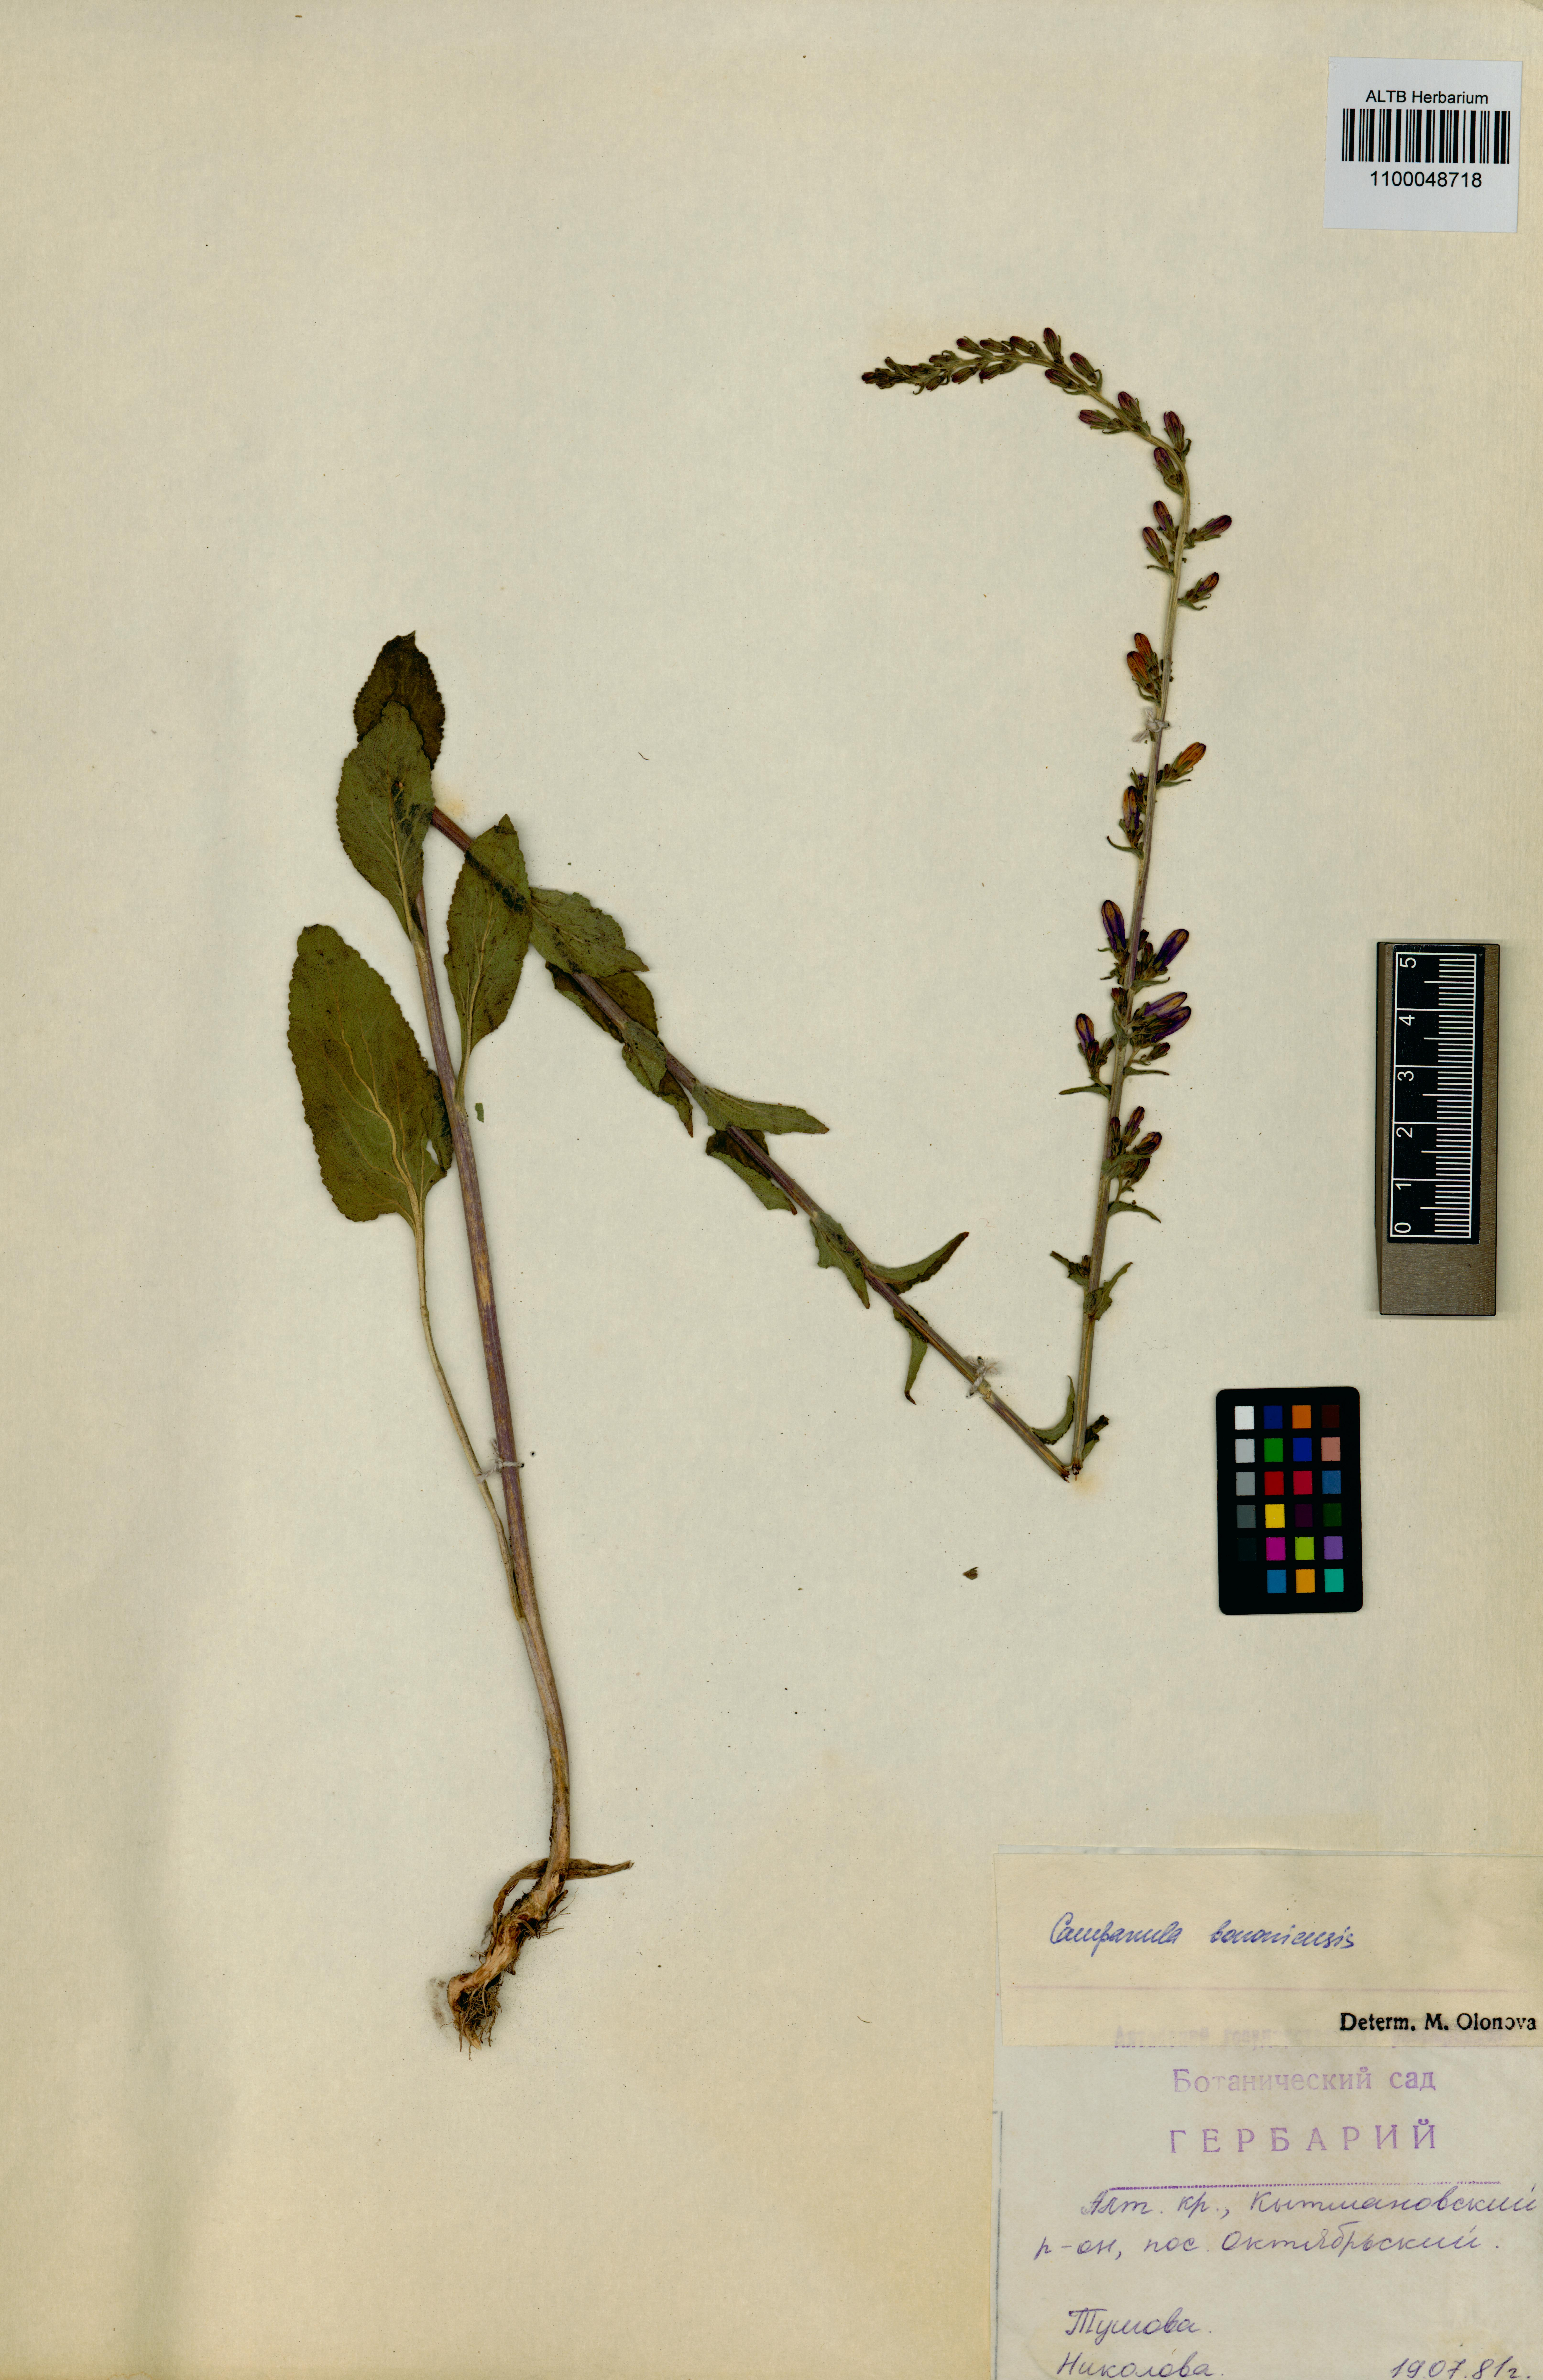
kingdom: Plantae
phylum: Tracheophyta
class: Magnoliopsida
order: Asterales
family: Campanulaceae
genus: Campanula
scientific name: Campanula bononiensis
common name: Pale bellflower
